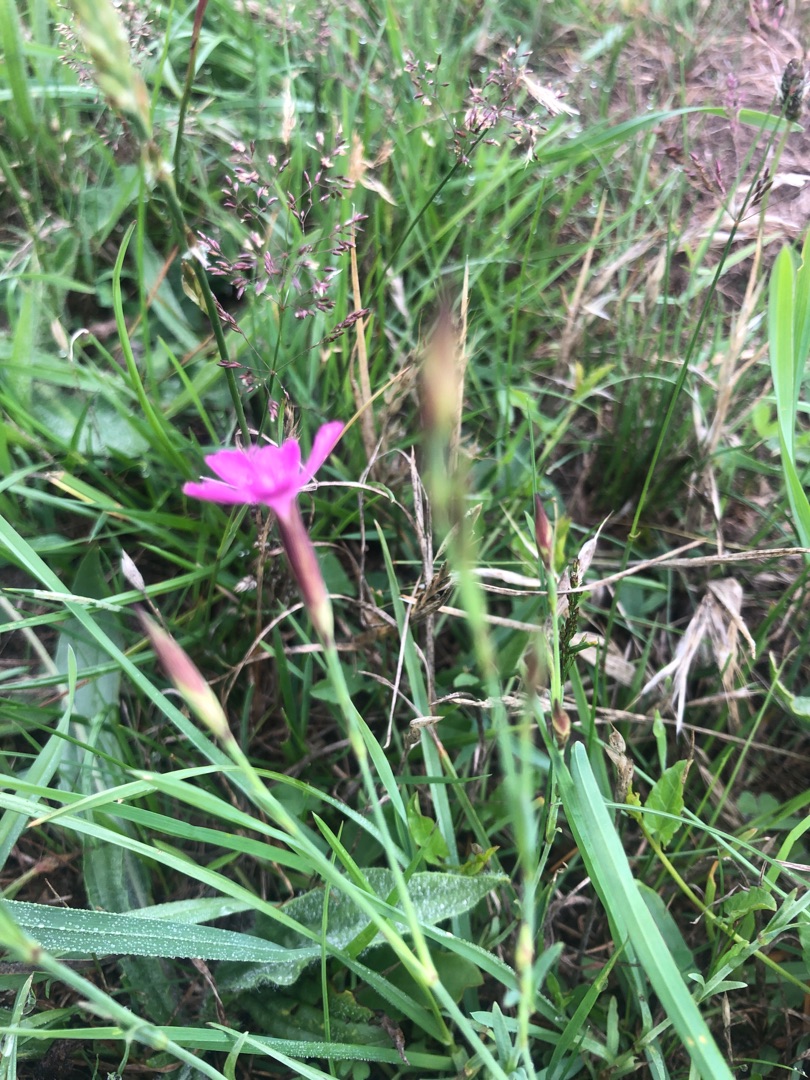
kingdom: Plantae
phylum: Tracheophyta
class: Magnoliopsida
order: Caryophyllales
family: Caryophyllaceae
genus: Dianthus
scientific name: Dianthus deltoides
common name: Bakke-nellike
